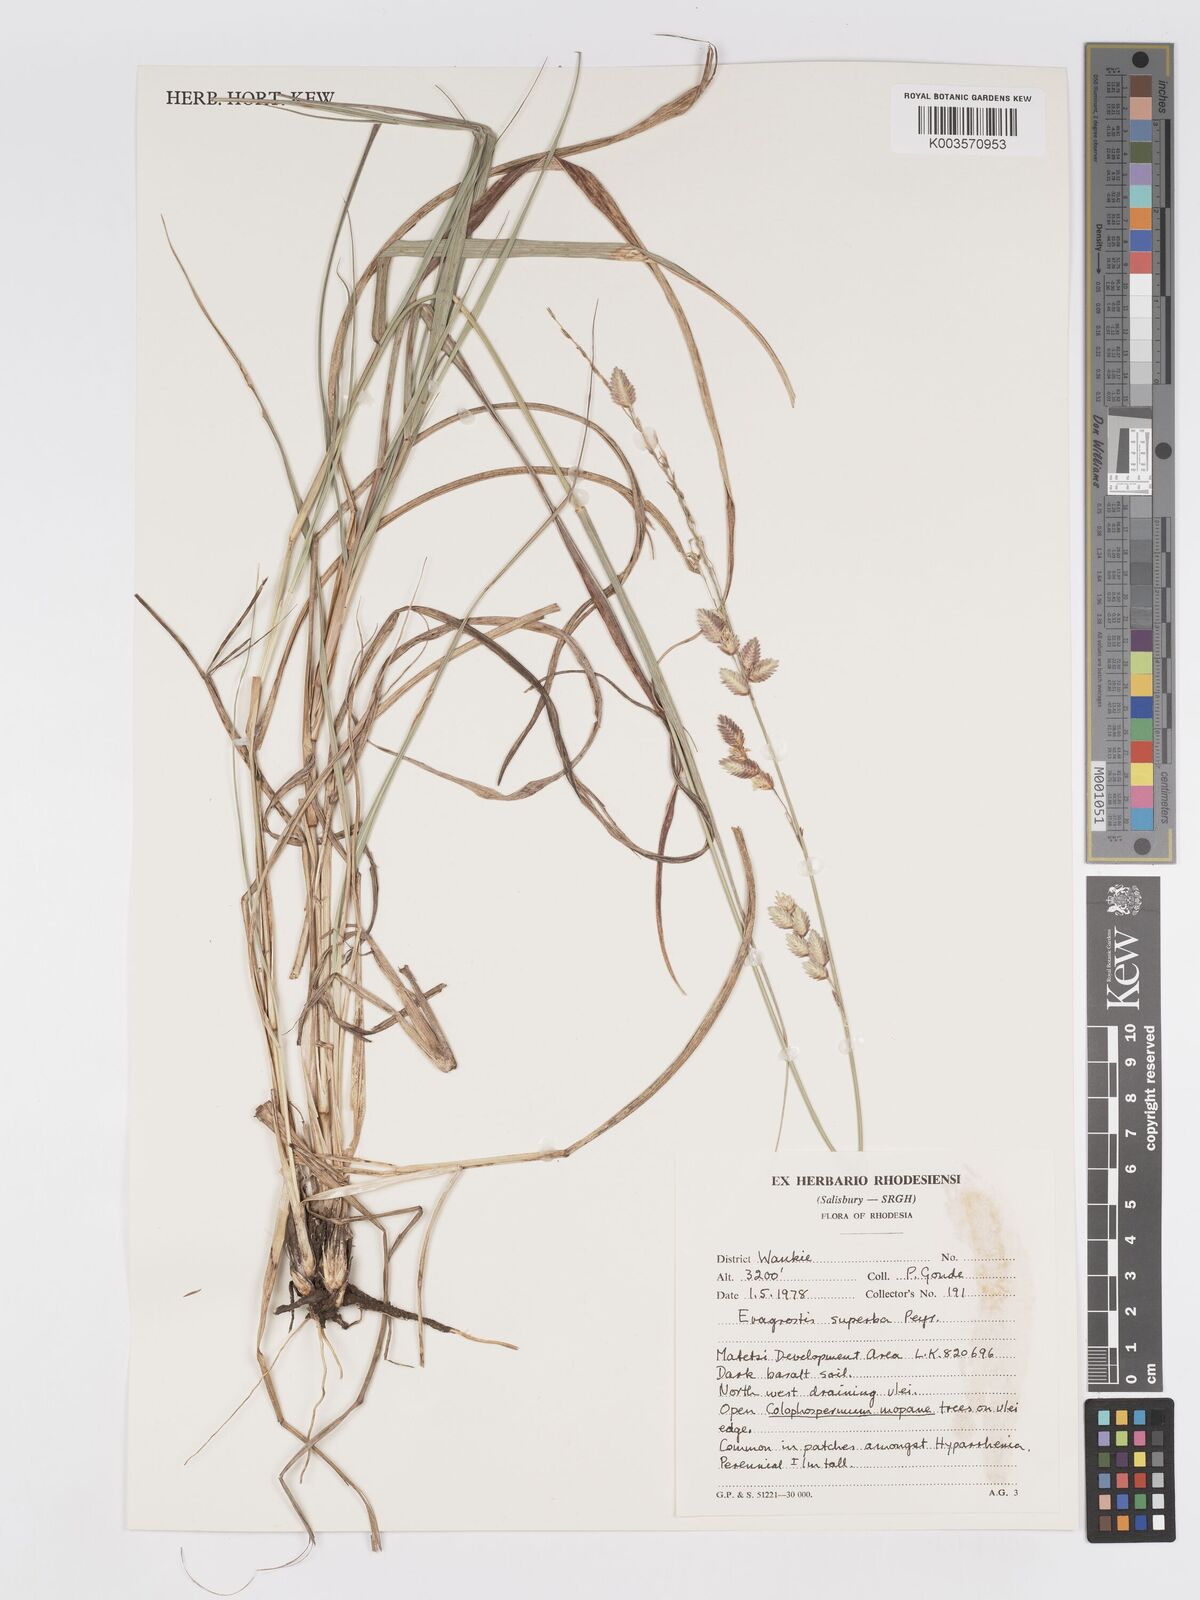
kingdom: Plantae
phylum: Tracheophyta
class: Liliopsida
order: Poales
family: Poaceae
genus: Eragrostis
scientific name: Eragrostis superba
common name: Wilman lovegrass
